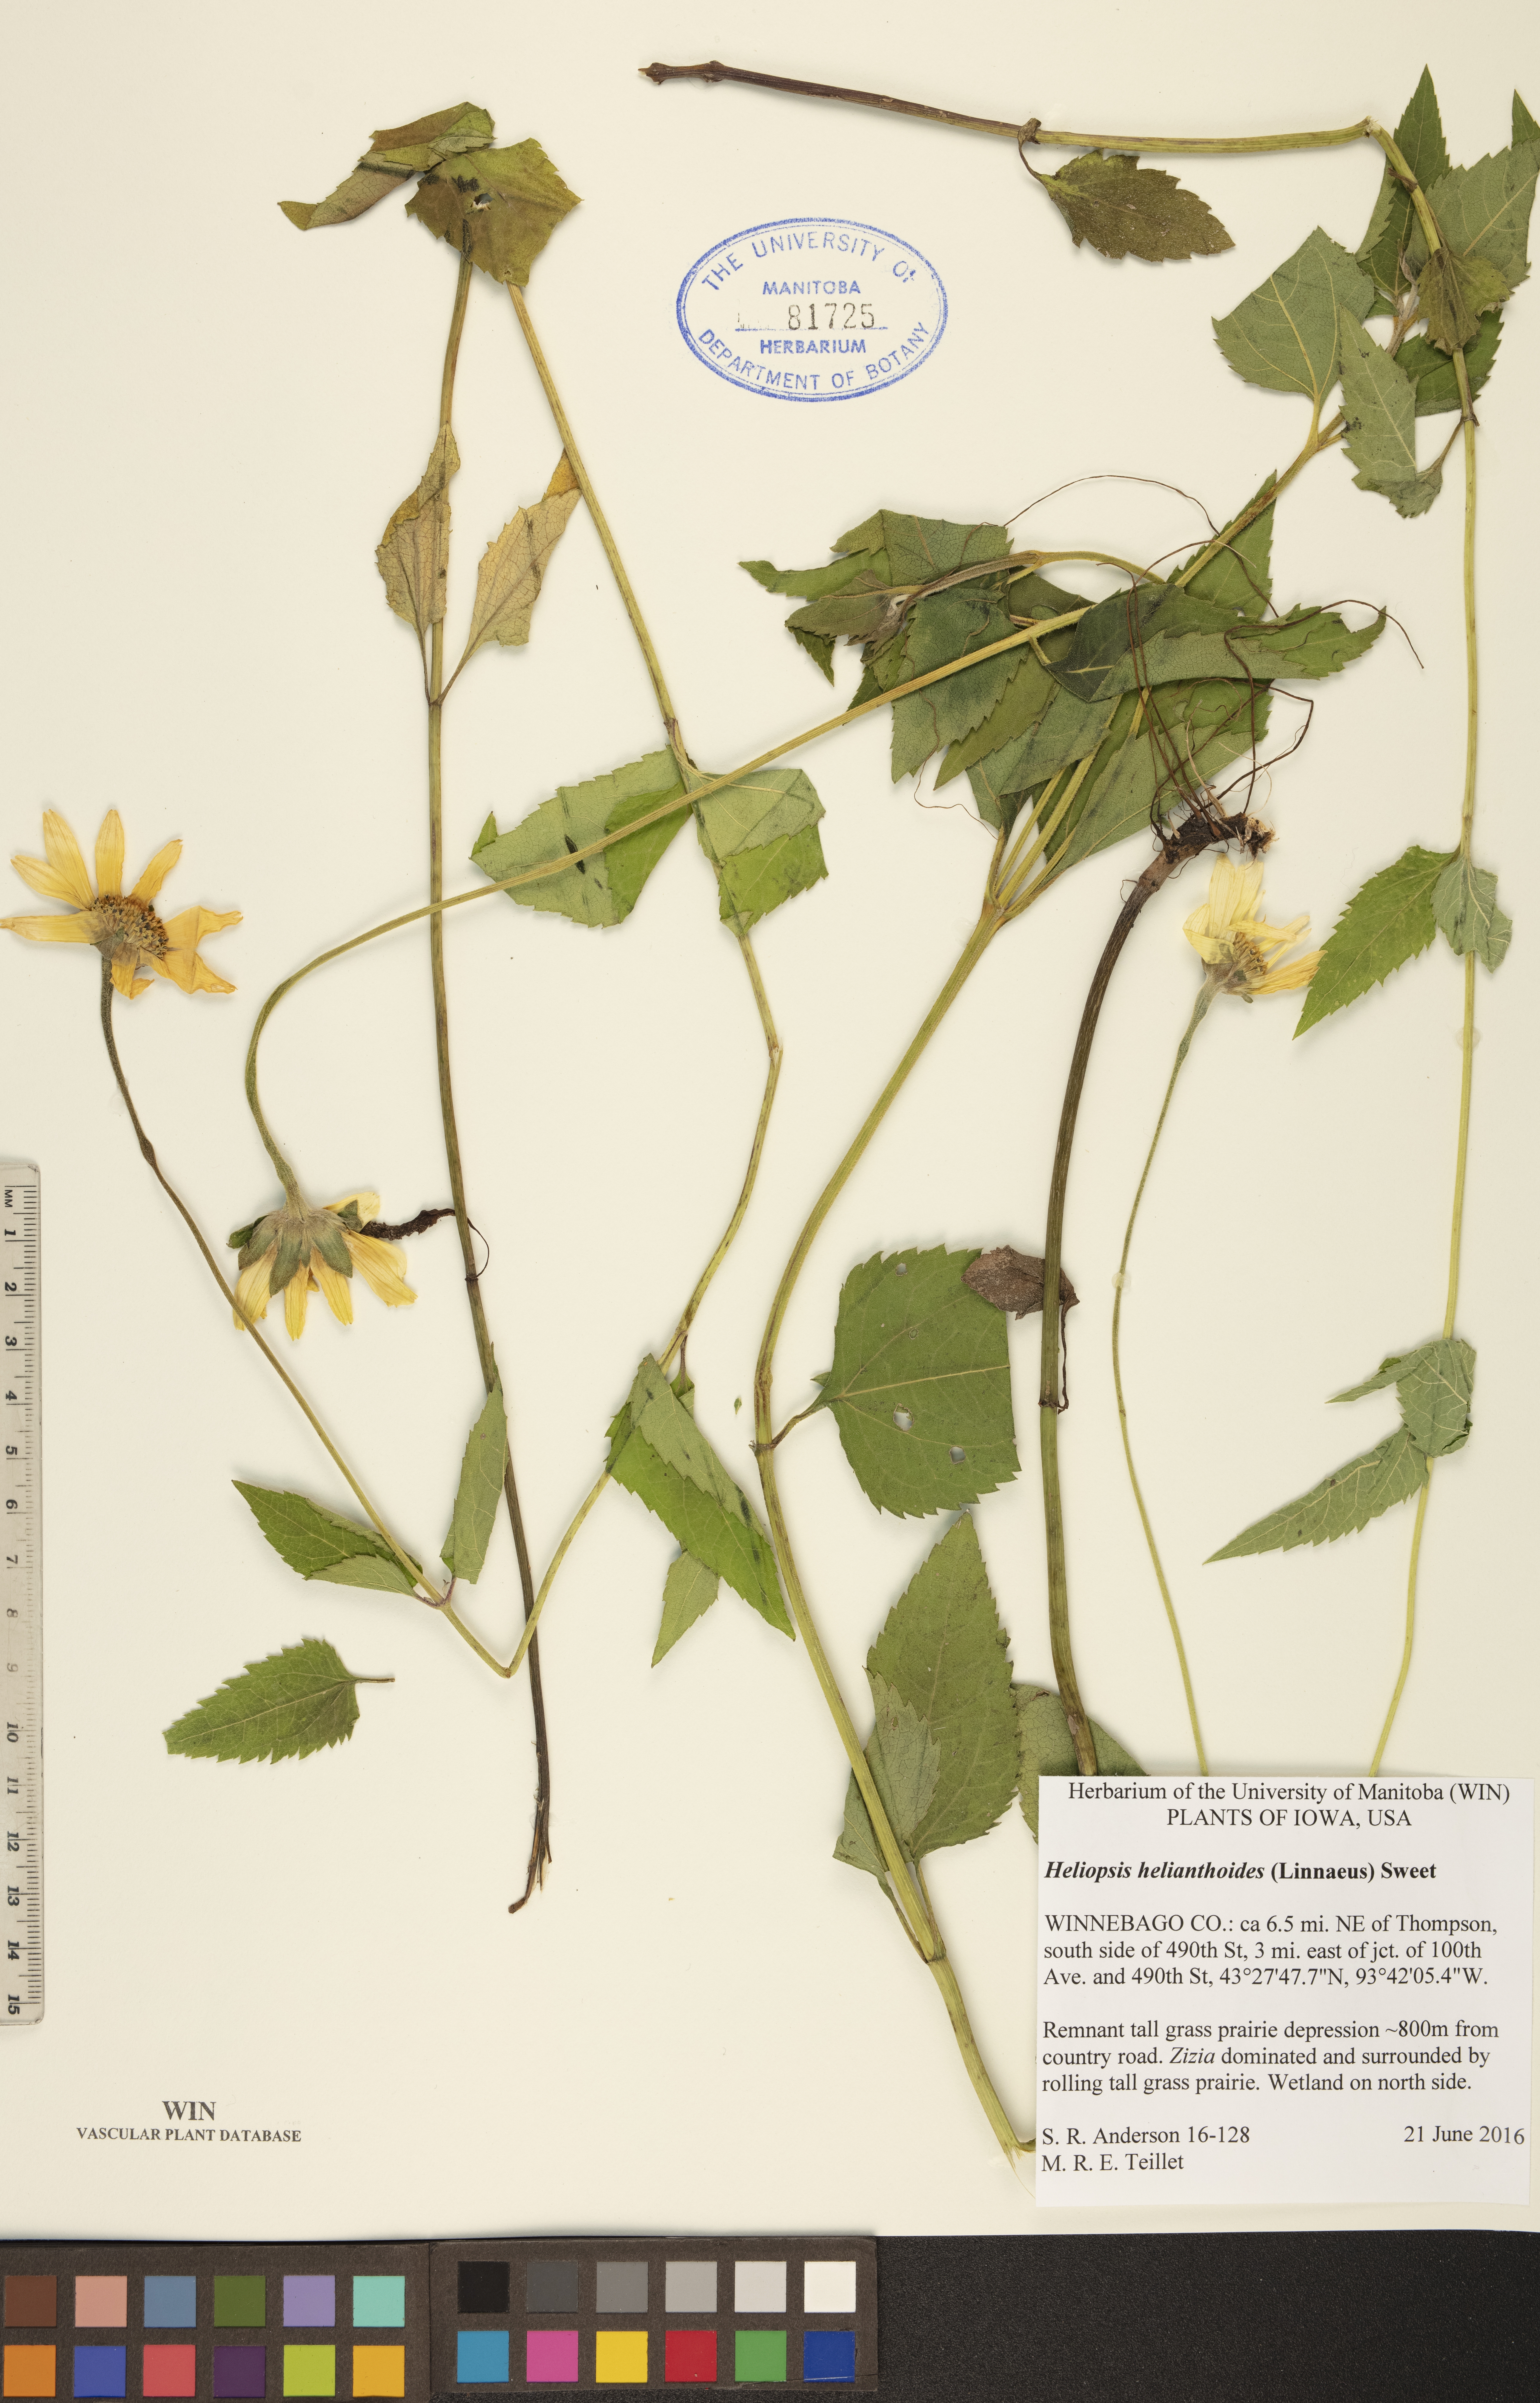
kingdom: Plantae
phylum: Tracheophyta
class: Magnoliopsida
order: Asterales
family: Asteraceae
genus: Heliopsis
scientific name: Heliopsis helianthoides
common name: False sunflower
